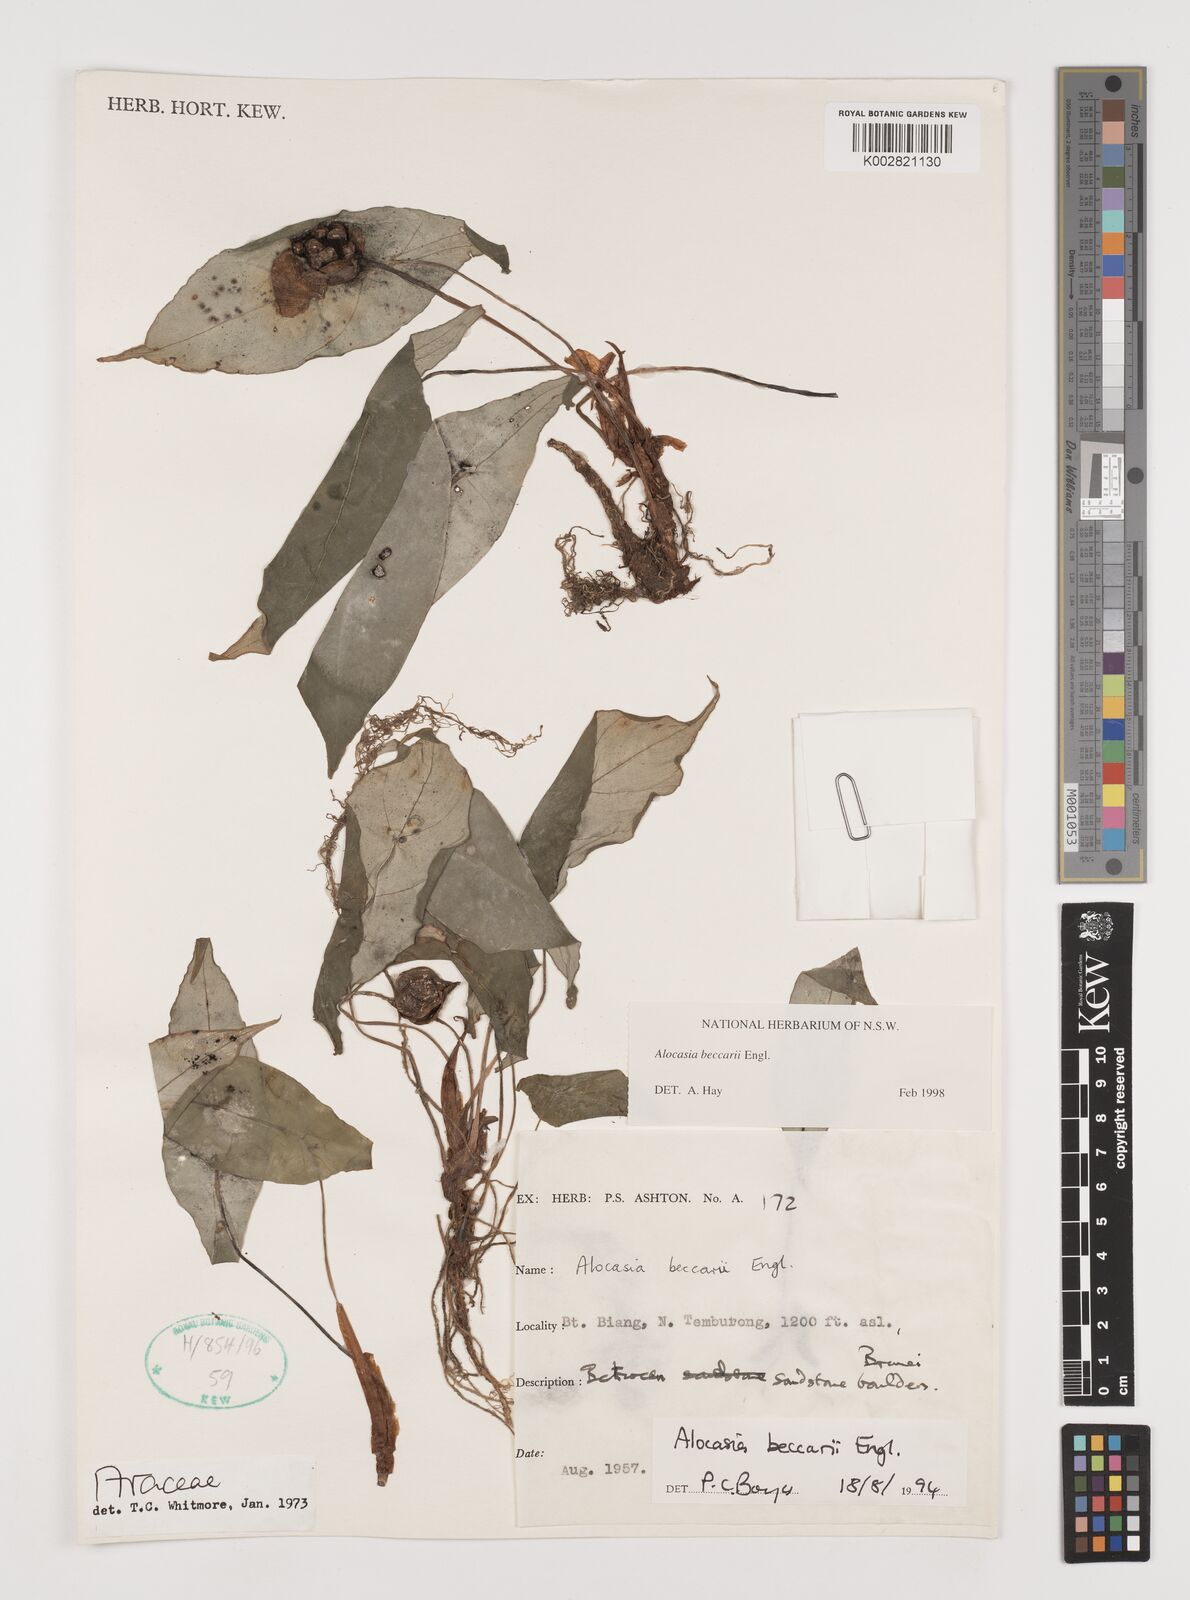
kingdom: Plantae
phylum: Tracheophyta
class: Liliopsida
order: Alismatales
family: Araceae
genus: Alocasia
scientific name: Alocasia beccarii
